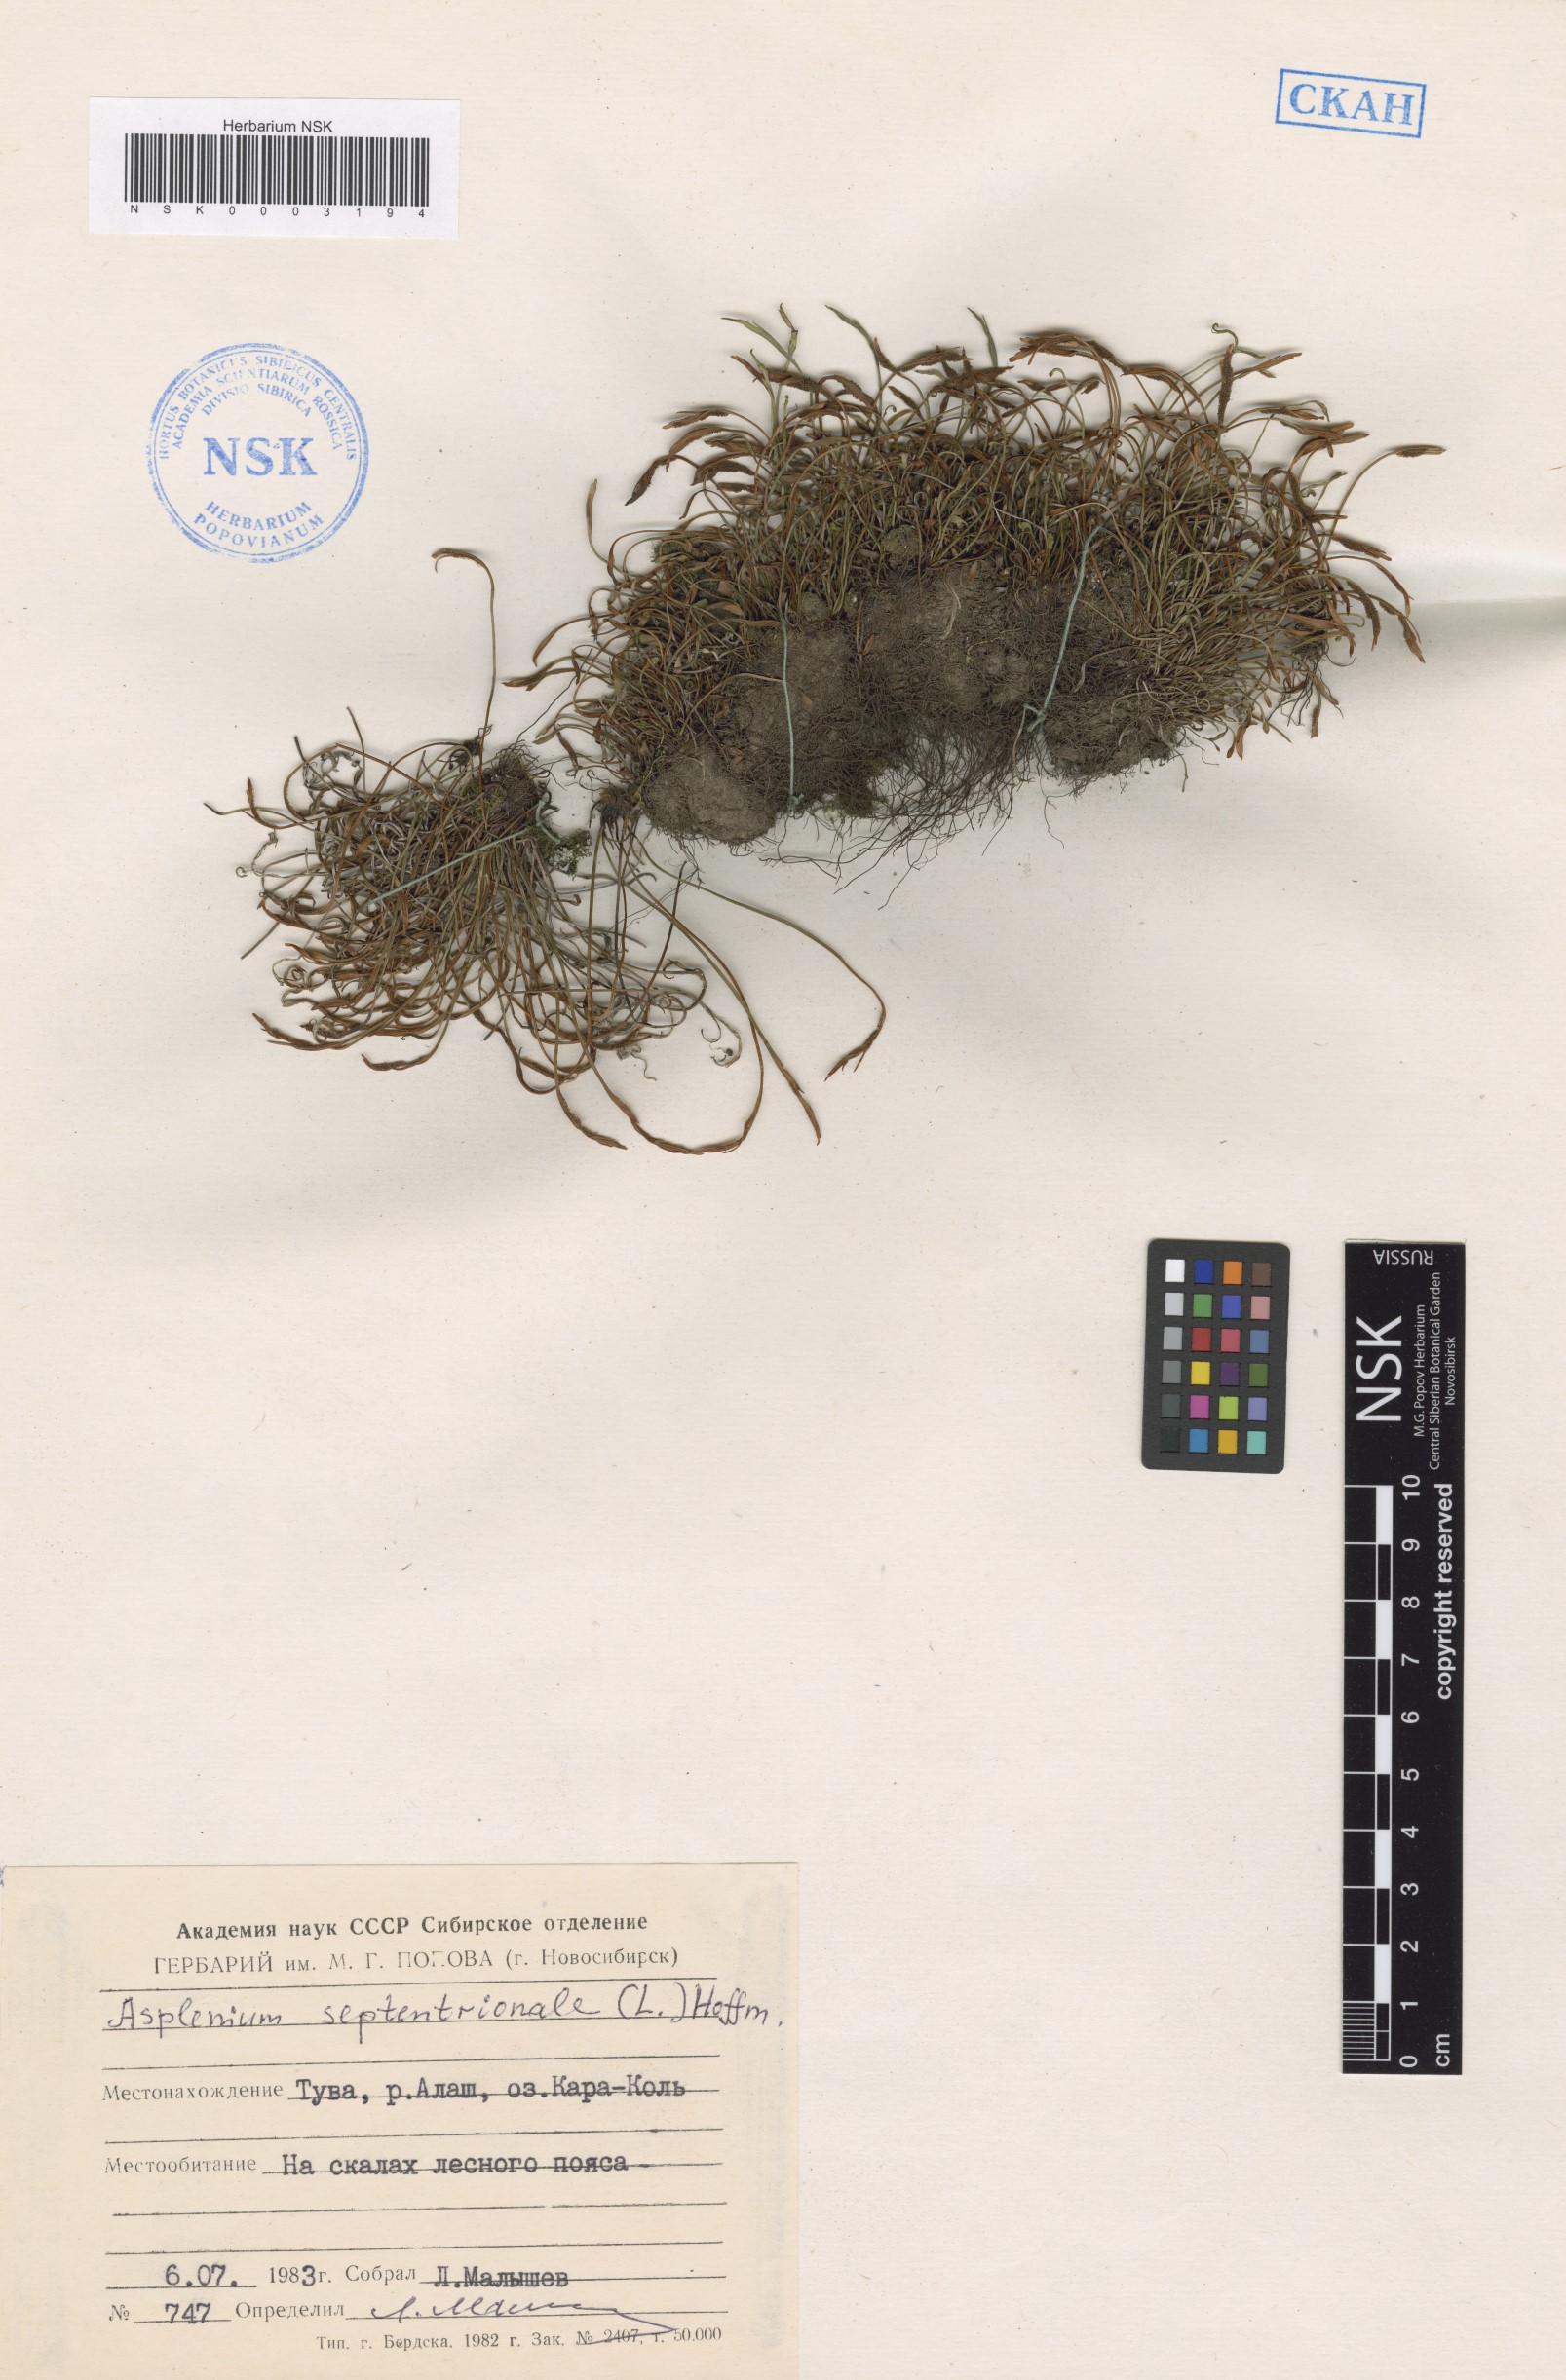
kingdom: Plantae
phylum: Tracheophyta
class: Polypodiopsida
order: Polypodiales
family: Aspleniaceae
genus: Asplenium
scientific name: Asplenium septentrionale
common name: Forked spleenwort
